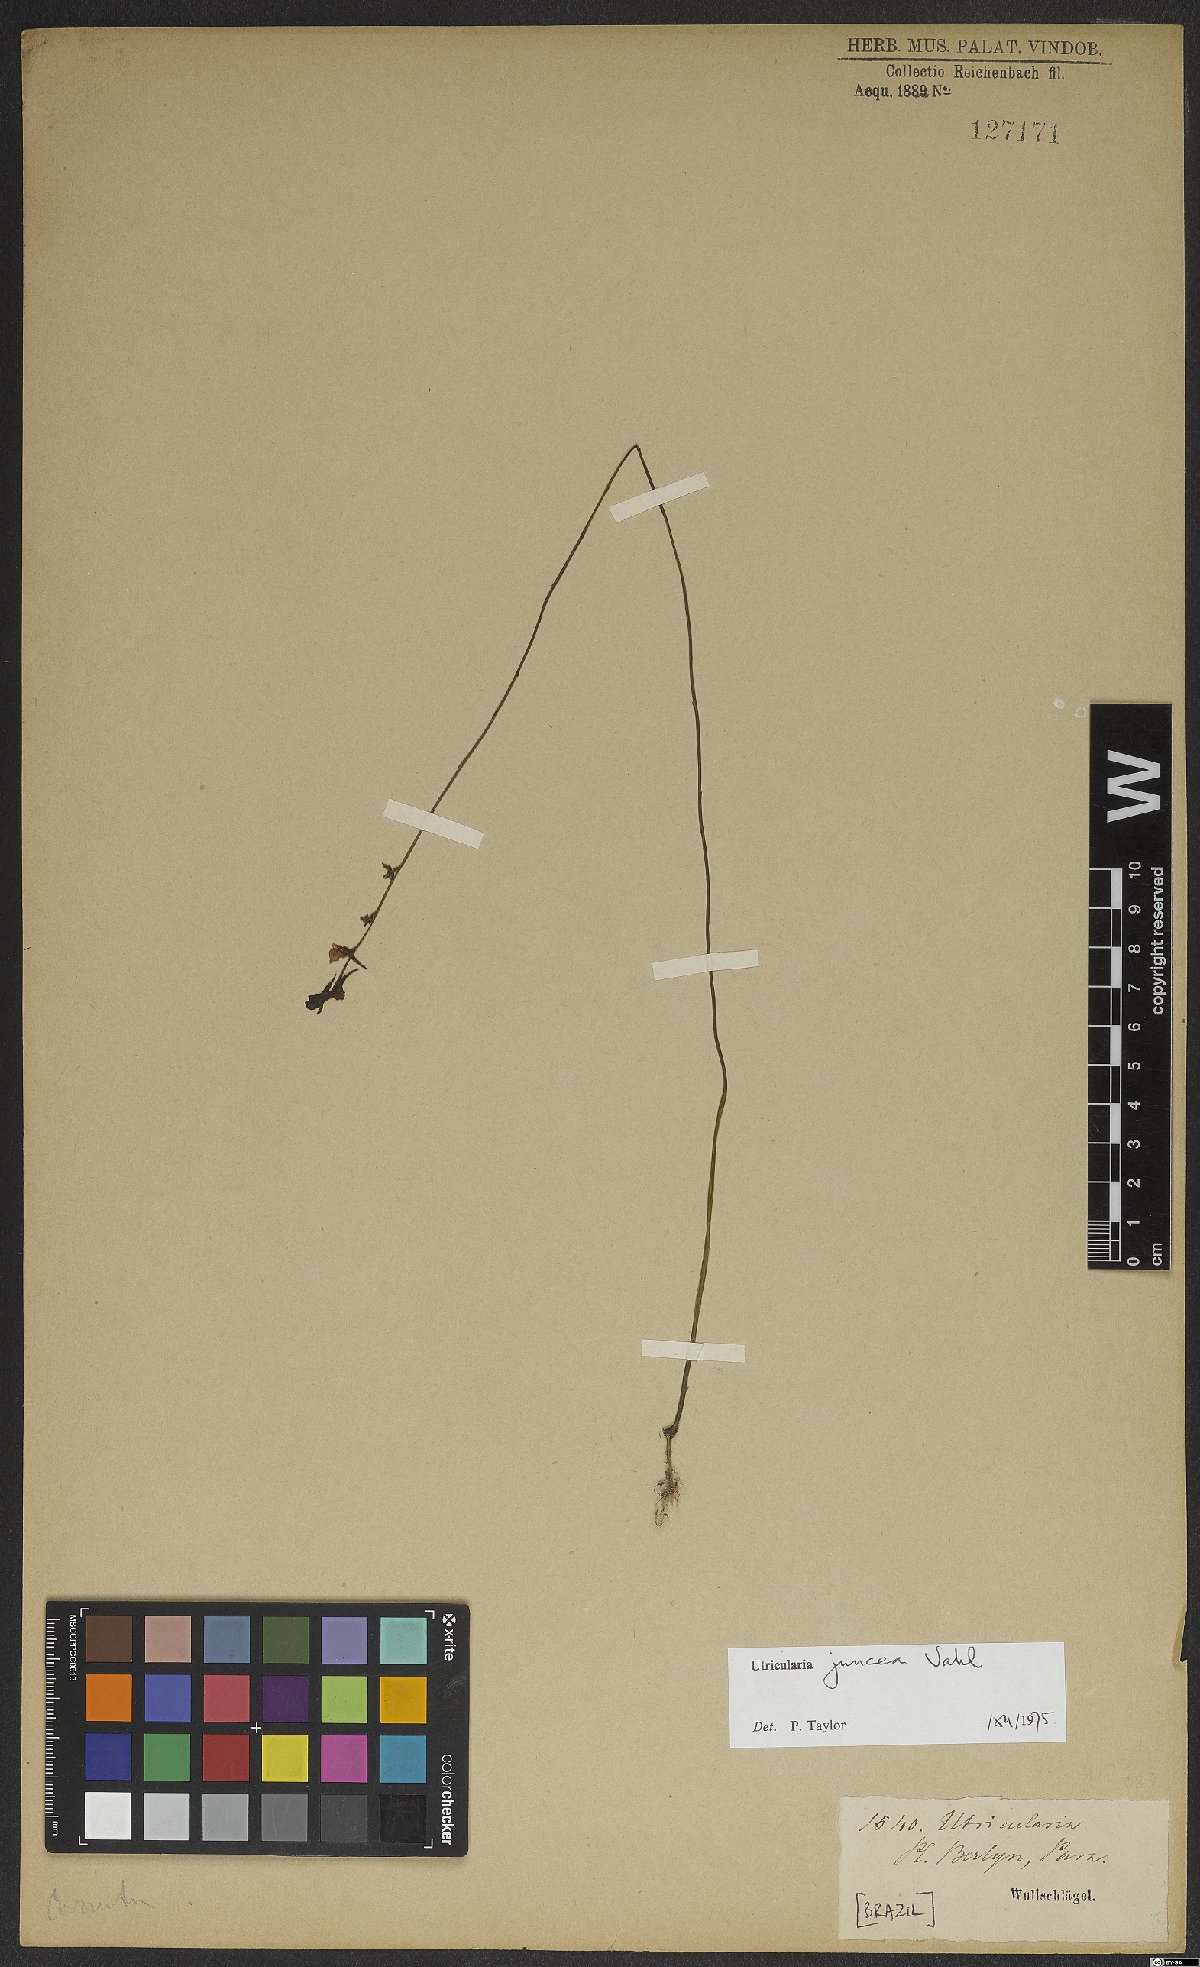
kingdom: Plantae
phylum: Tracheophyta
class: Magnoliopsida
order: Lamiales
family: Lentibulariaceae
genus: Utricularia
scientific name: Utricularia juncea
